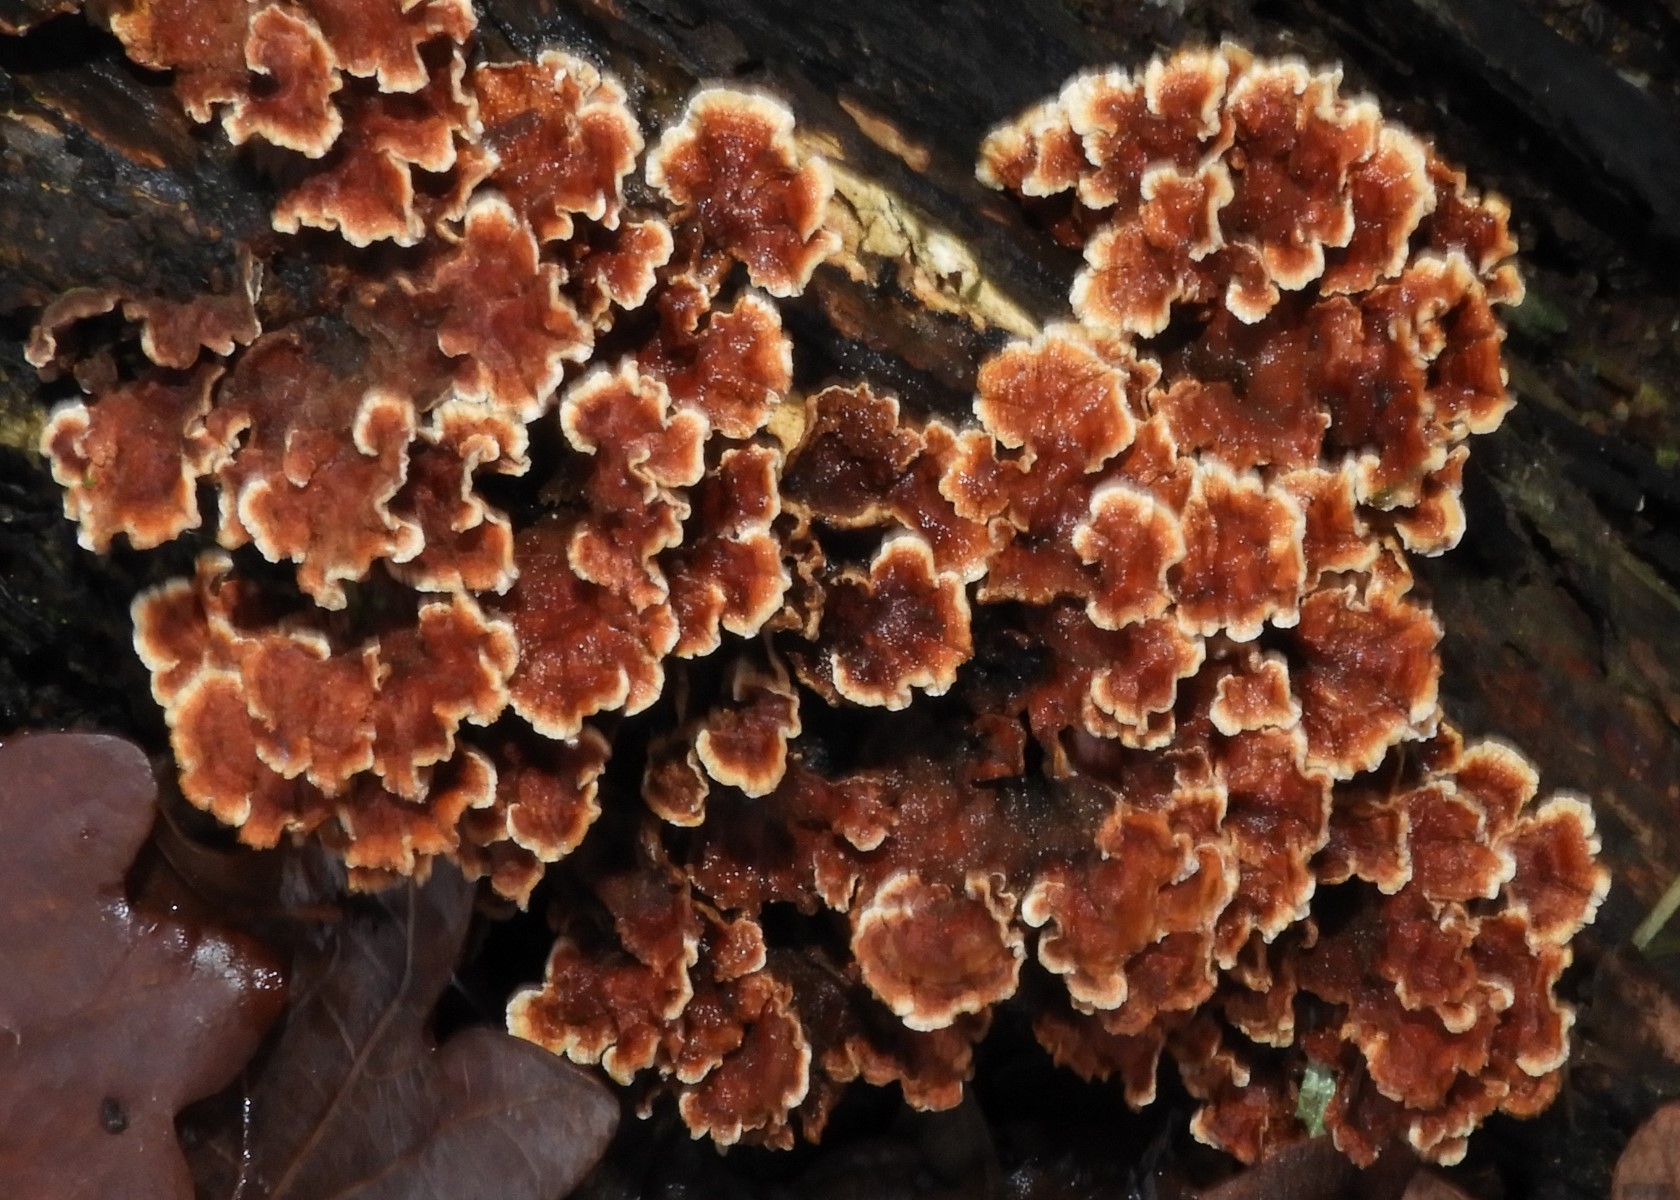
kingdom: Fungi
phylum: Basidiomycota
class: Agaricomycetes
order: Russulales
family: Stereaceae
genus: Stereum
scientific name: Stereum hirsutum
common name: håret lædersvamp
